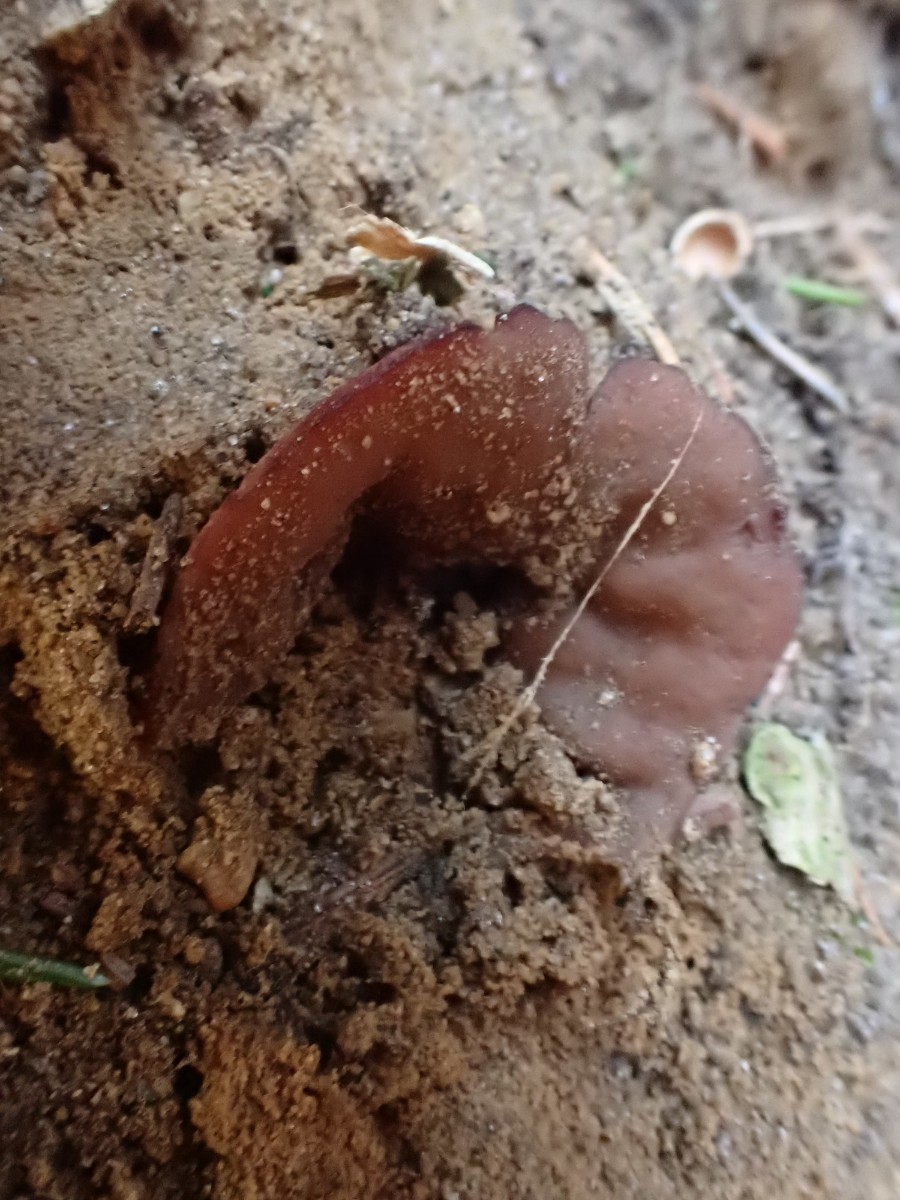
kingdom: Fungi
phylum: Ascomycota
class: Pezizomycetes
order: Pezizales
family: Discinaceae
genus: Discina
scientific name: Discina ancilis
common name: udbredt stenmorkel
